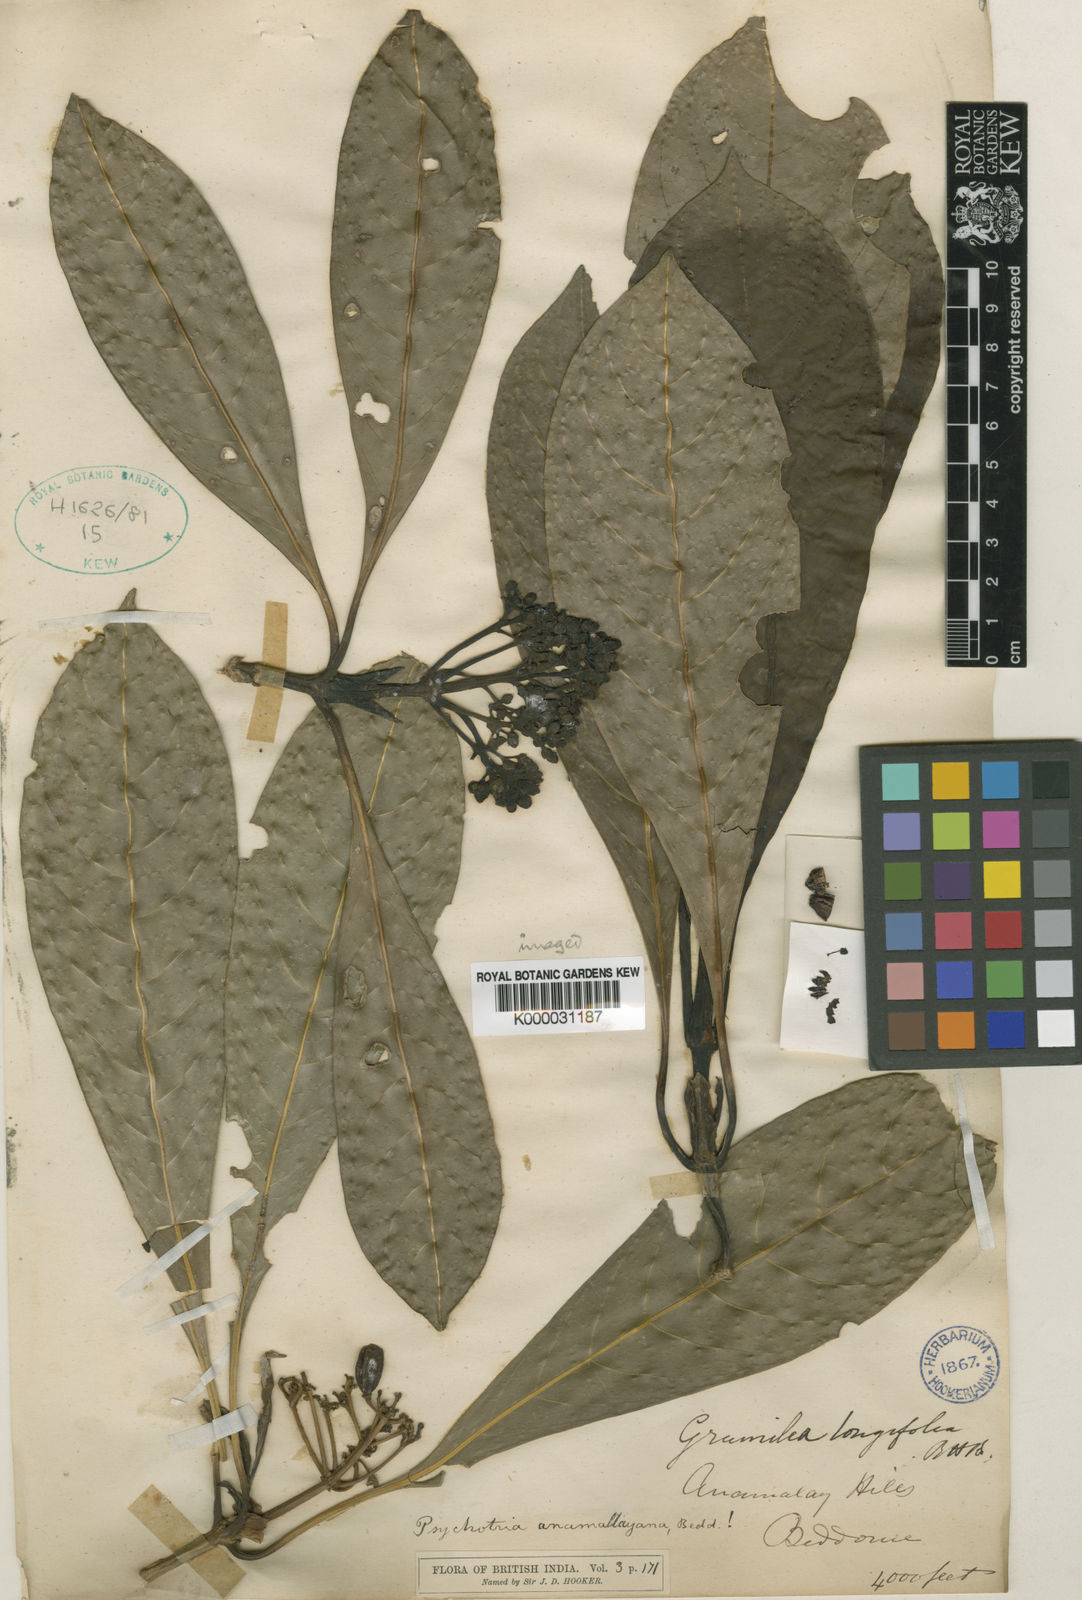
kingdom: Plantae
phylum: Tracheophyta
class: Magnoliopsida
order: Gentianales
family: Rubiaceae
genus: Psychotria
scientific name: Psychotria anamallayana
